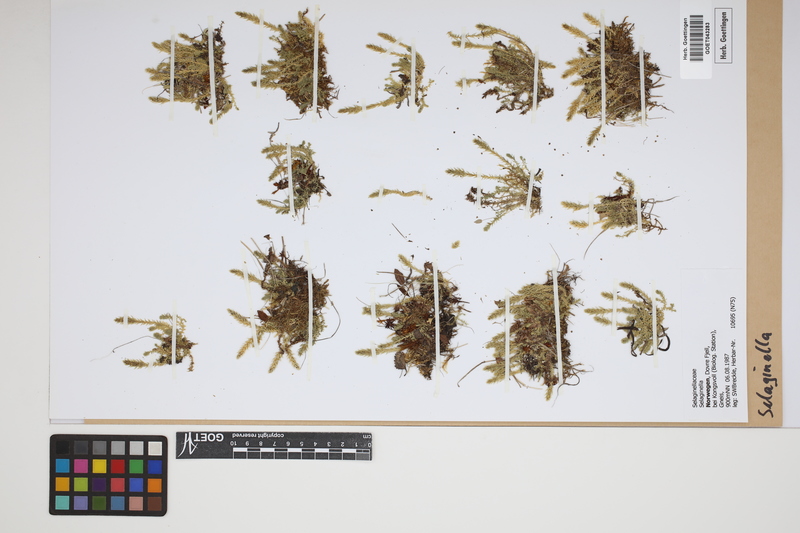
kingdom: Plantae
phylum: Tracheophyta
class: Lycopodiopsida
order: Selaginellales
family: Selaginellaceae
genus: Selaginella
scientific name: Selaginella
